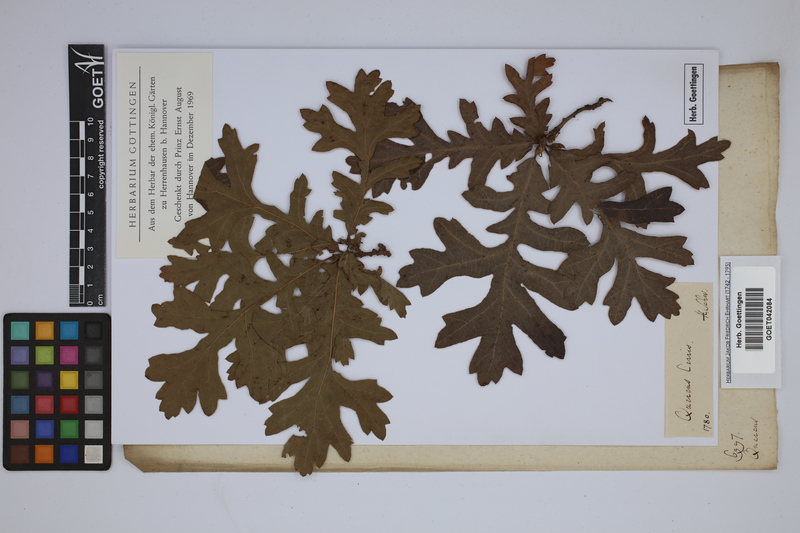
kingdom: Plantae
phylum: Tracheophyta
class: Magnoliopsida
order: Fagales
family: Fagaceae
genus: Quercus
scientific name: Quercus cerris
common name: Turkey oak
